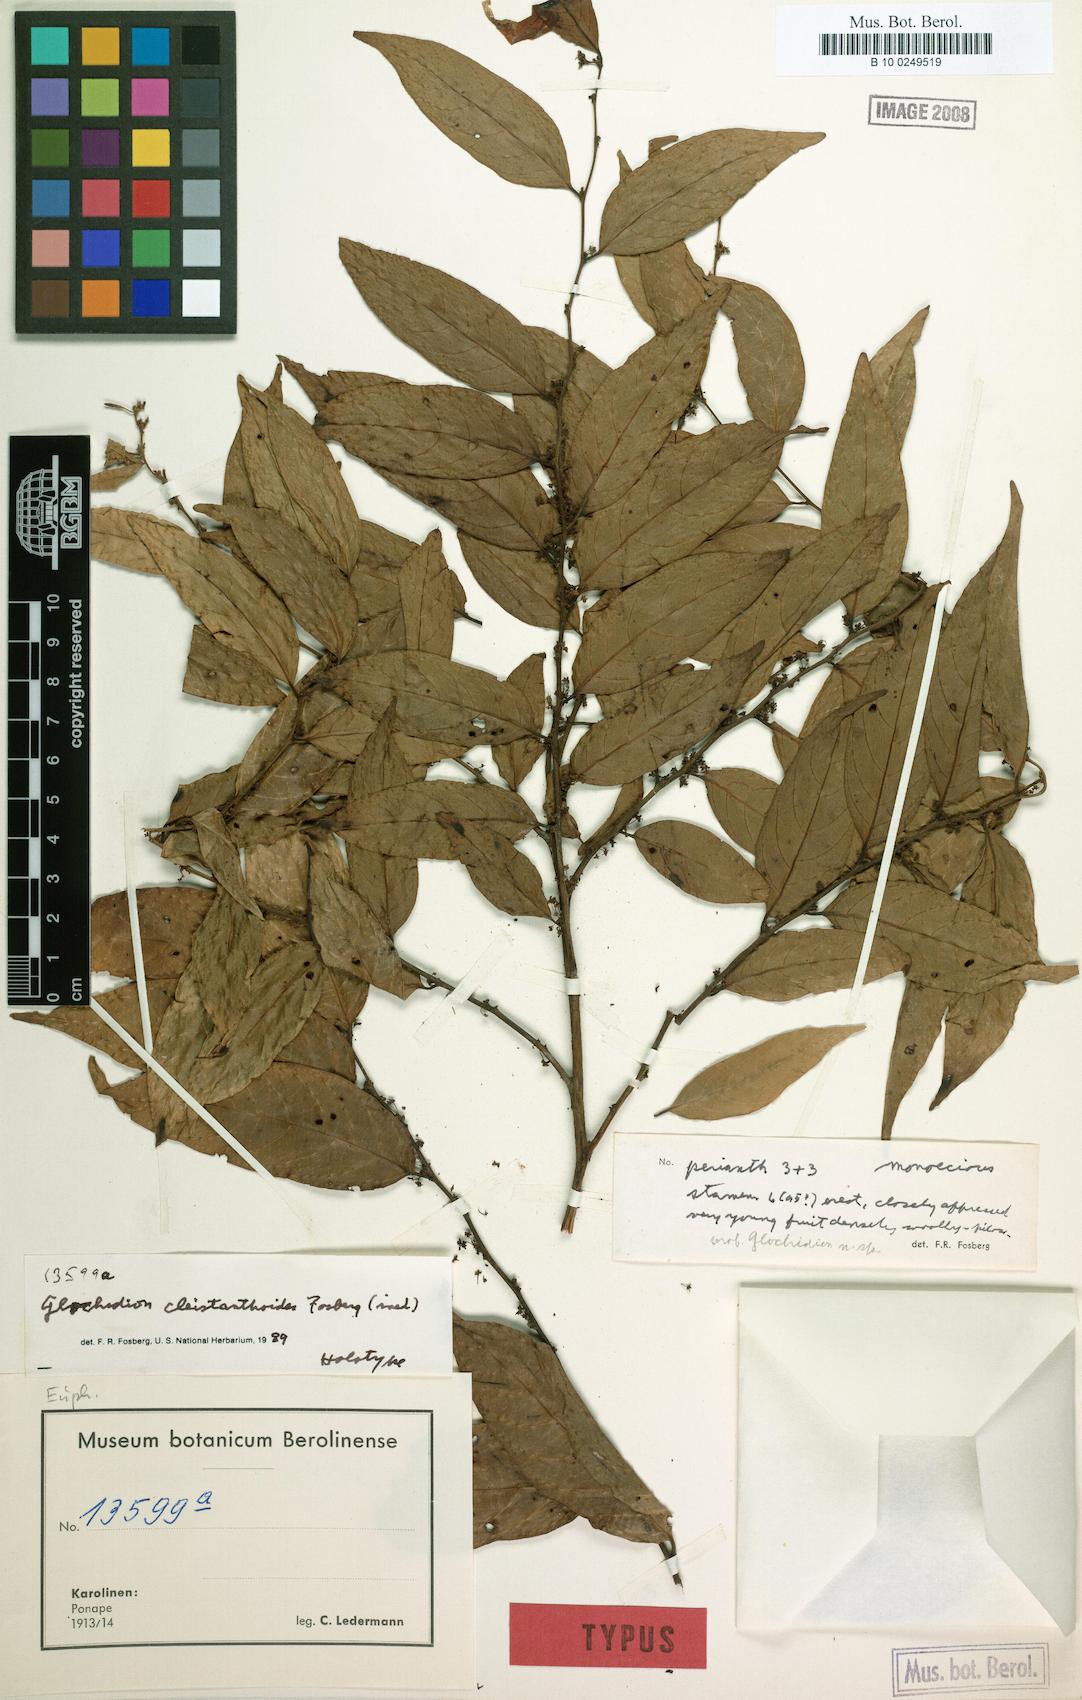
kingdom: Plantae
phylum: Tracheophyta
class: Magnoliopsida
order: Malpighiales
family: Phyllanthaceae
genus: Glochidion
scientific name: Glochidion cleistanthoides
